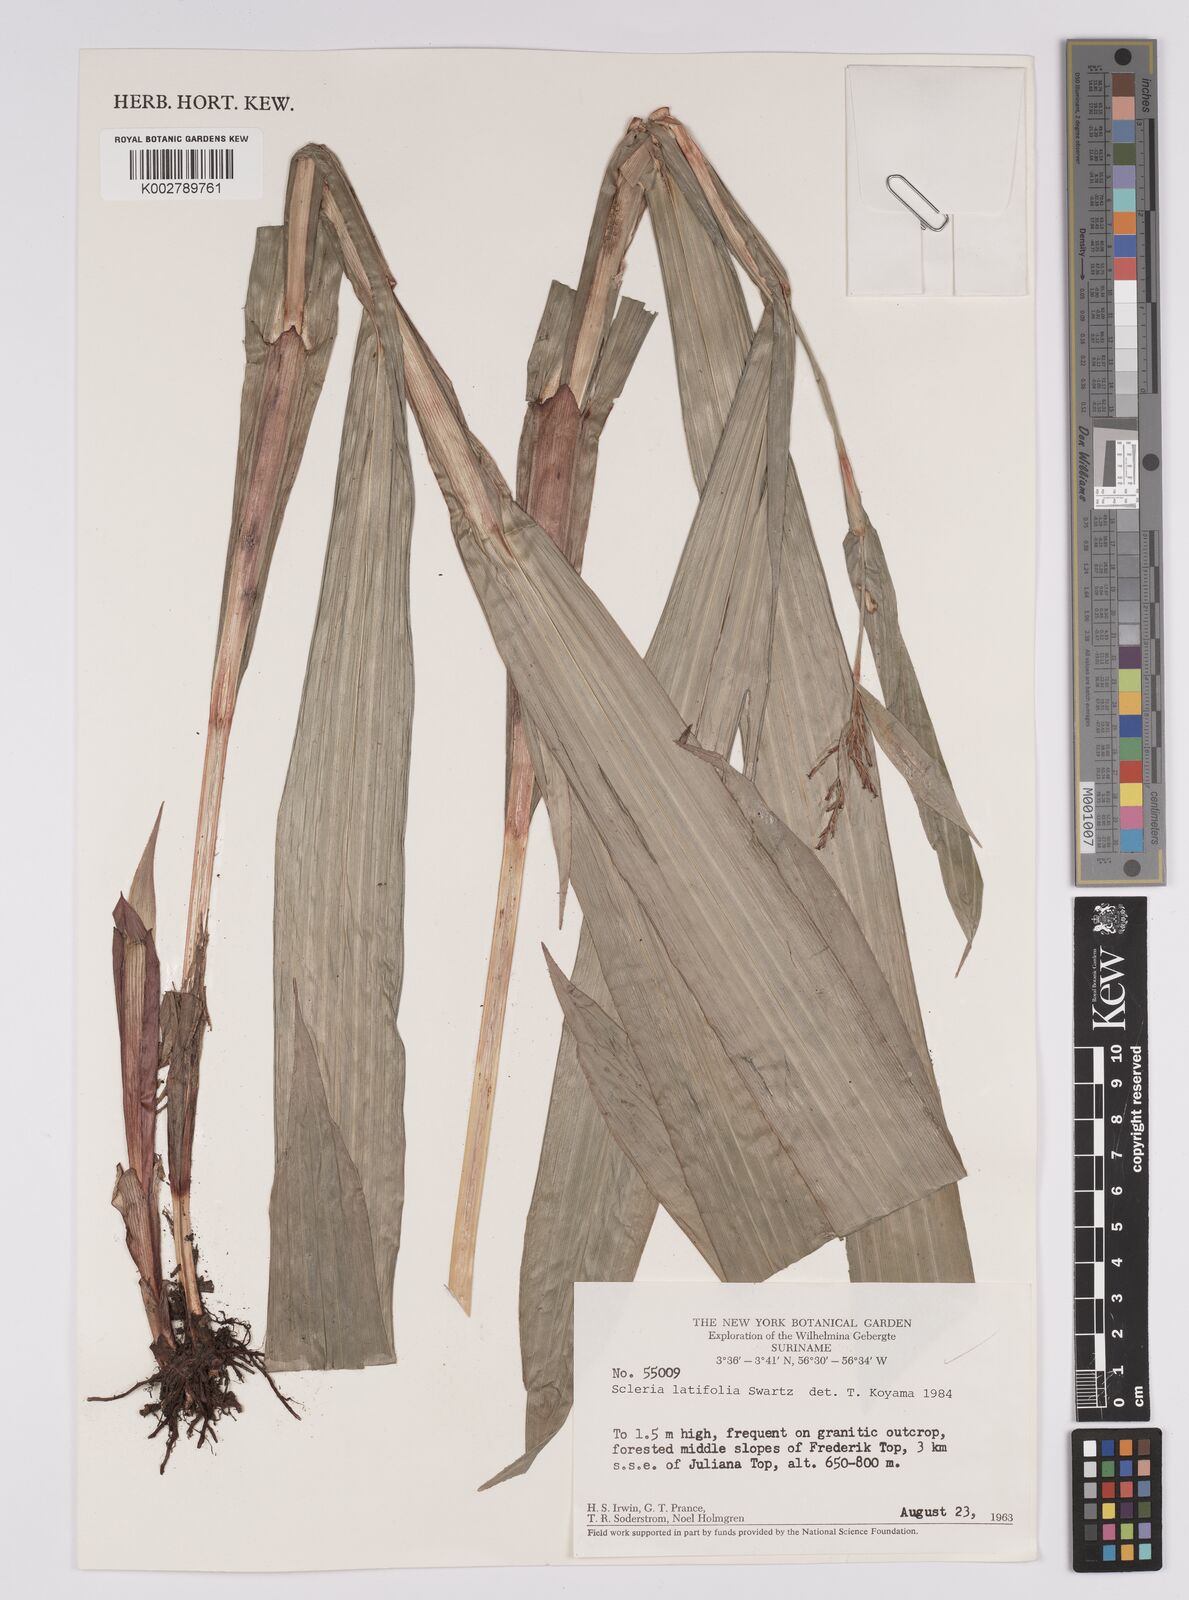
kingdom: Plantae
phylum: Tracheophyta
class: Liliopsida
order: Poales
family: Cyperaceae
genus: Scleria
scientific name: Scleria latifolia
